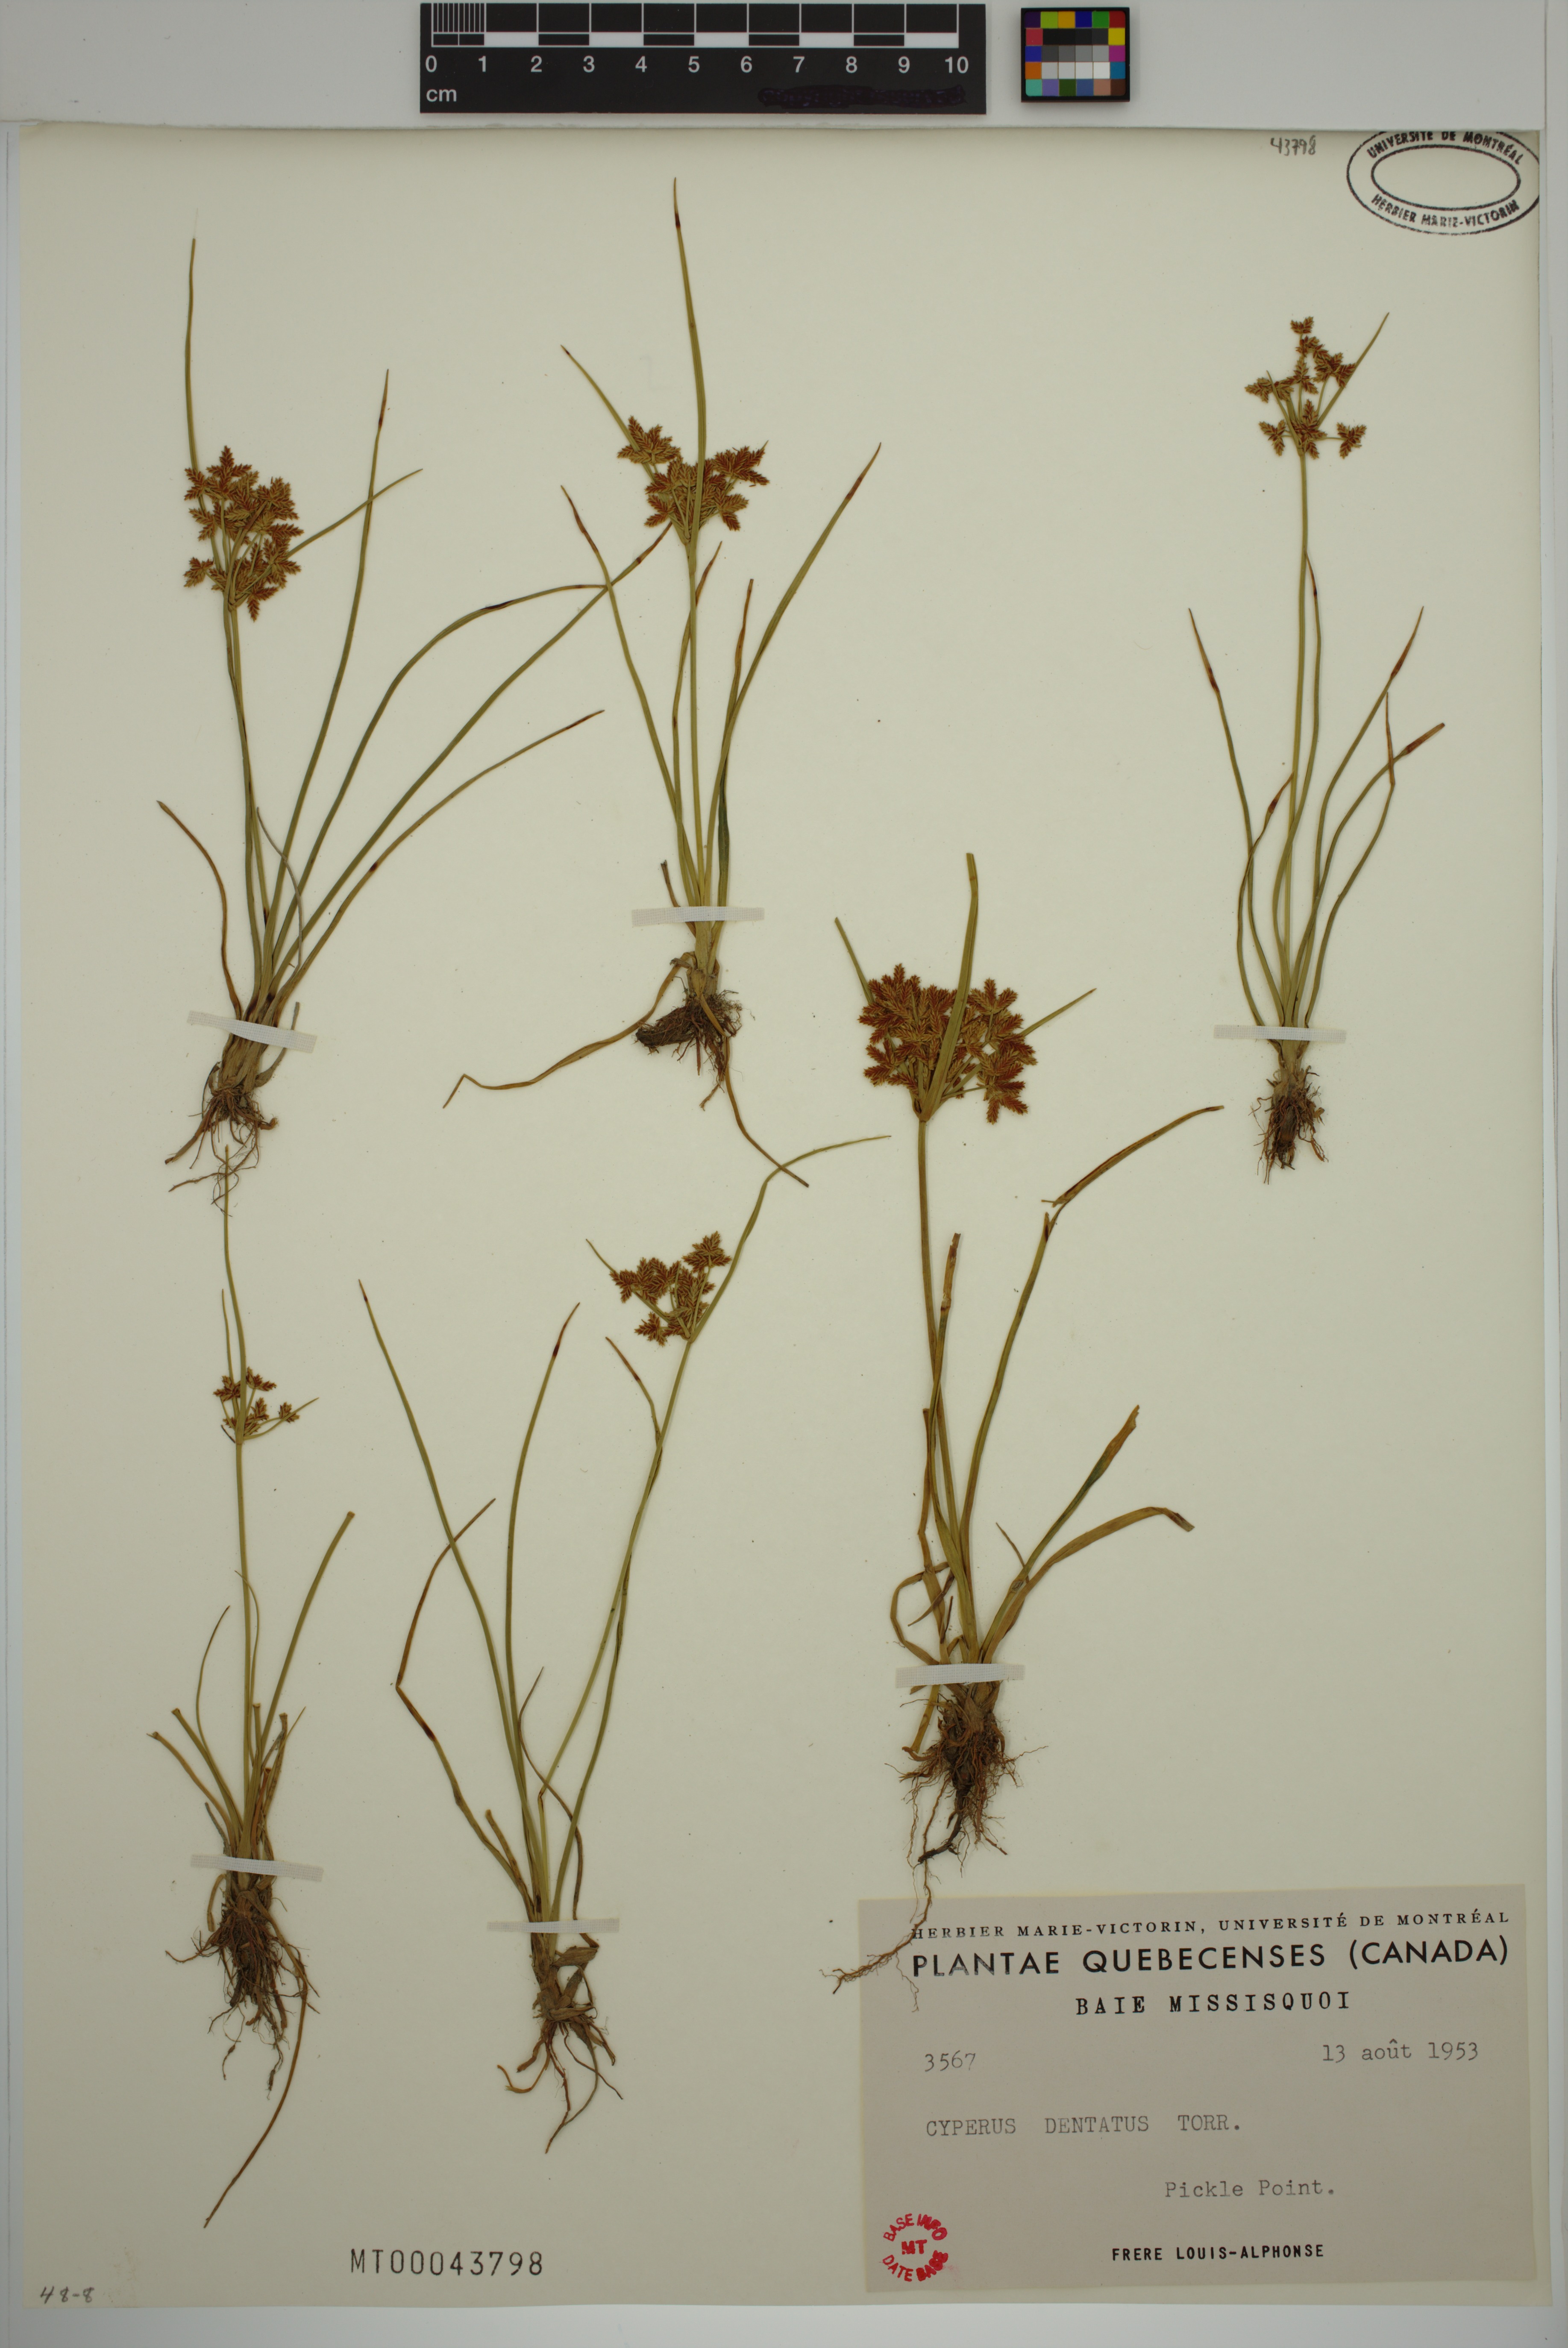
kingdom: Plantae
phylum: Tracheophyta
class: Liliopsida
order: Poales
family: Cyperaceae
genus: Cyperus
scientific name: Cyperus dentatus
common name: Dentate umbrella sedge
